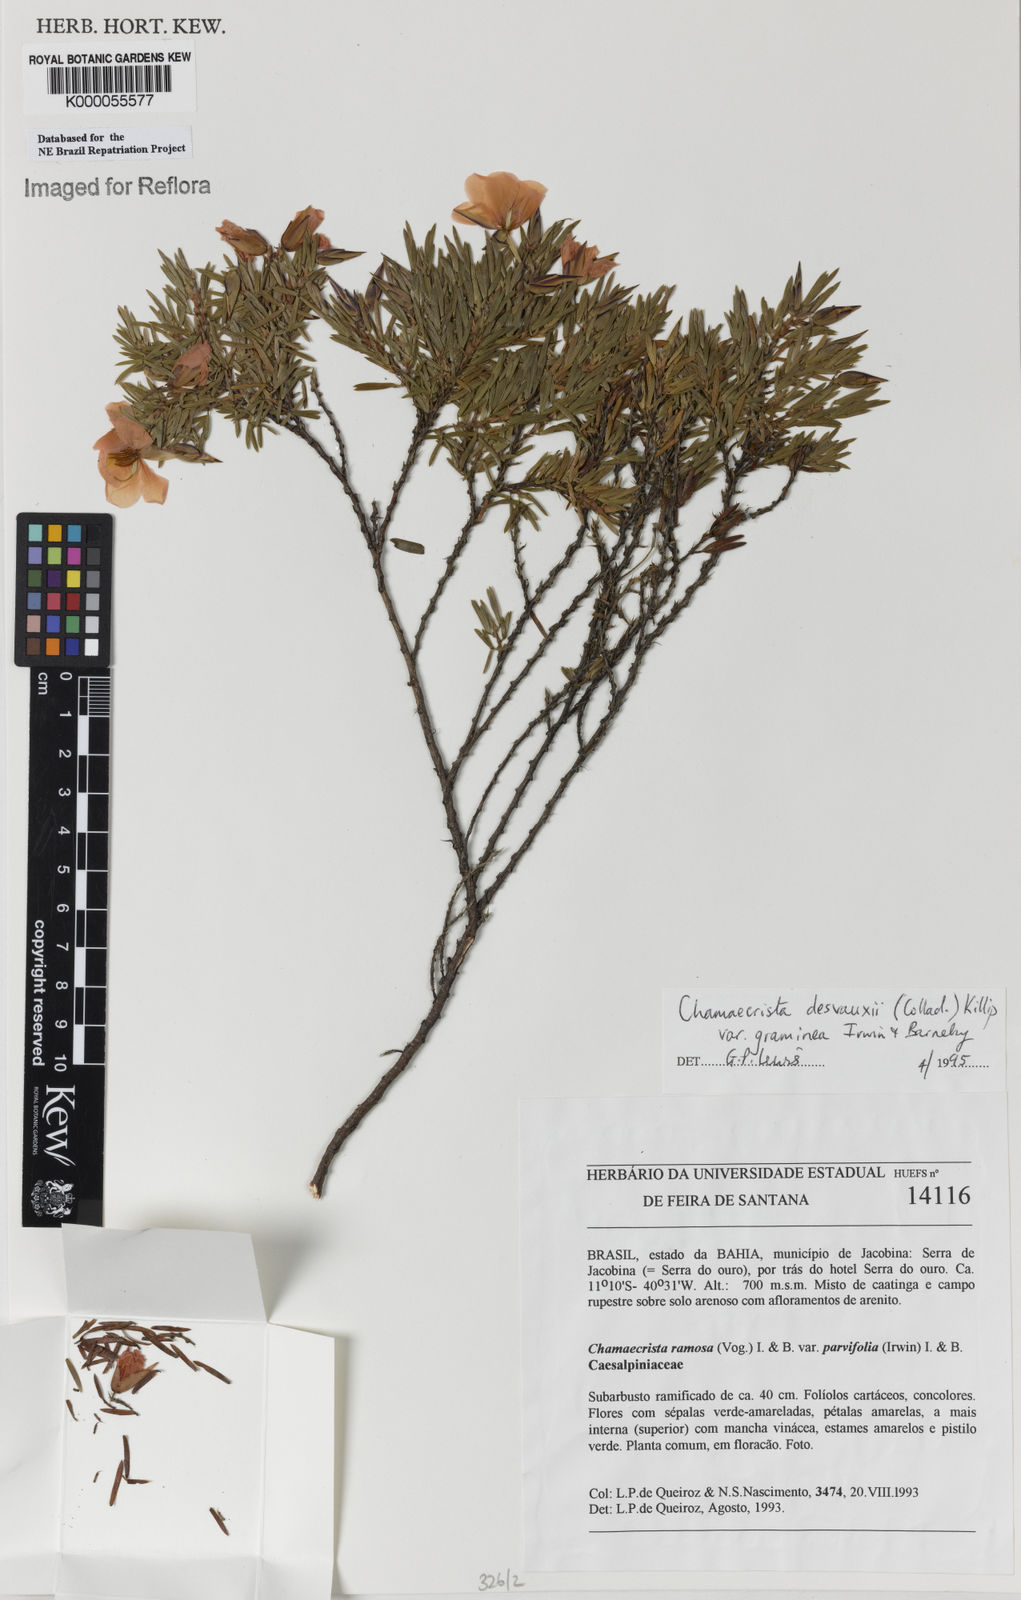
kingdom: Plantae
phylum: Tracheophyta
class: Magnoliopsida
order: Fabales
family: Fabaceae
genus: Chamaecrista
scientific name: Chamaecrista desvauxii
